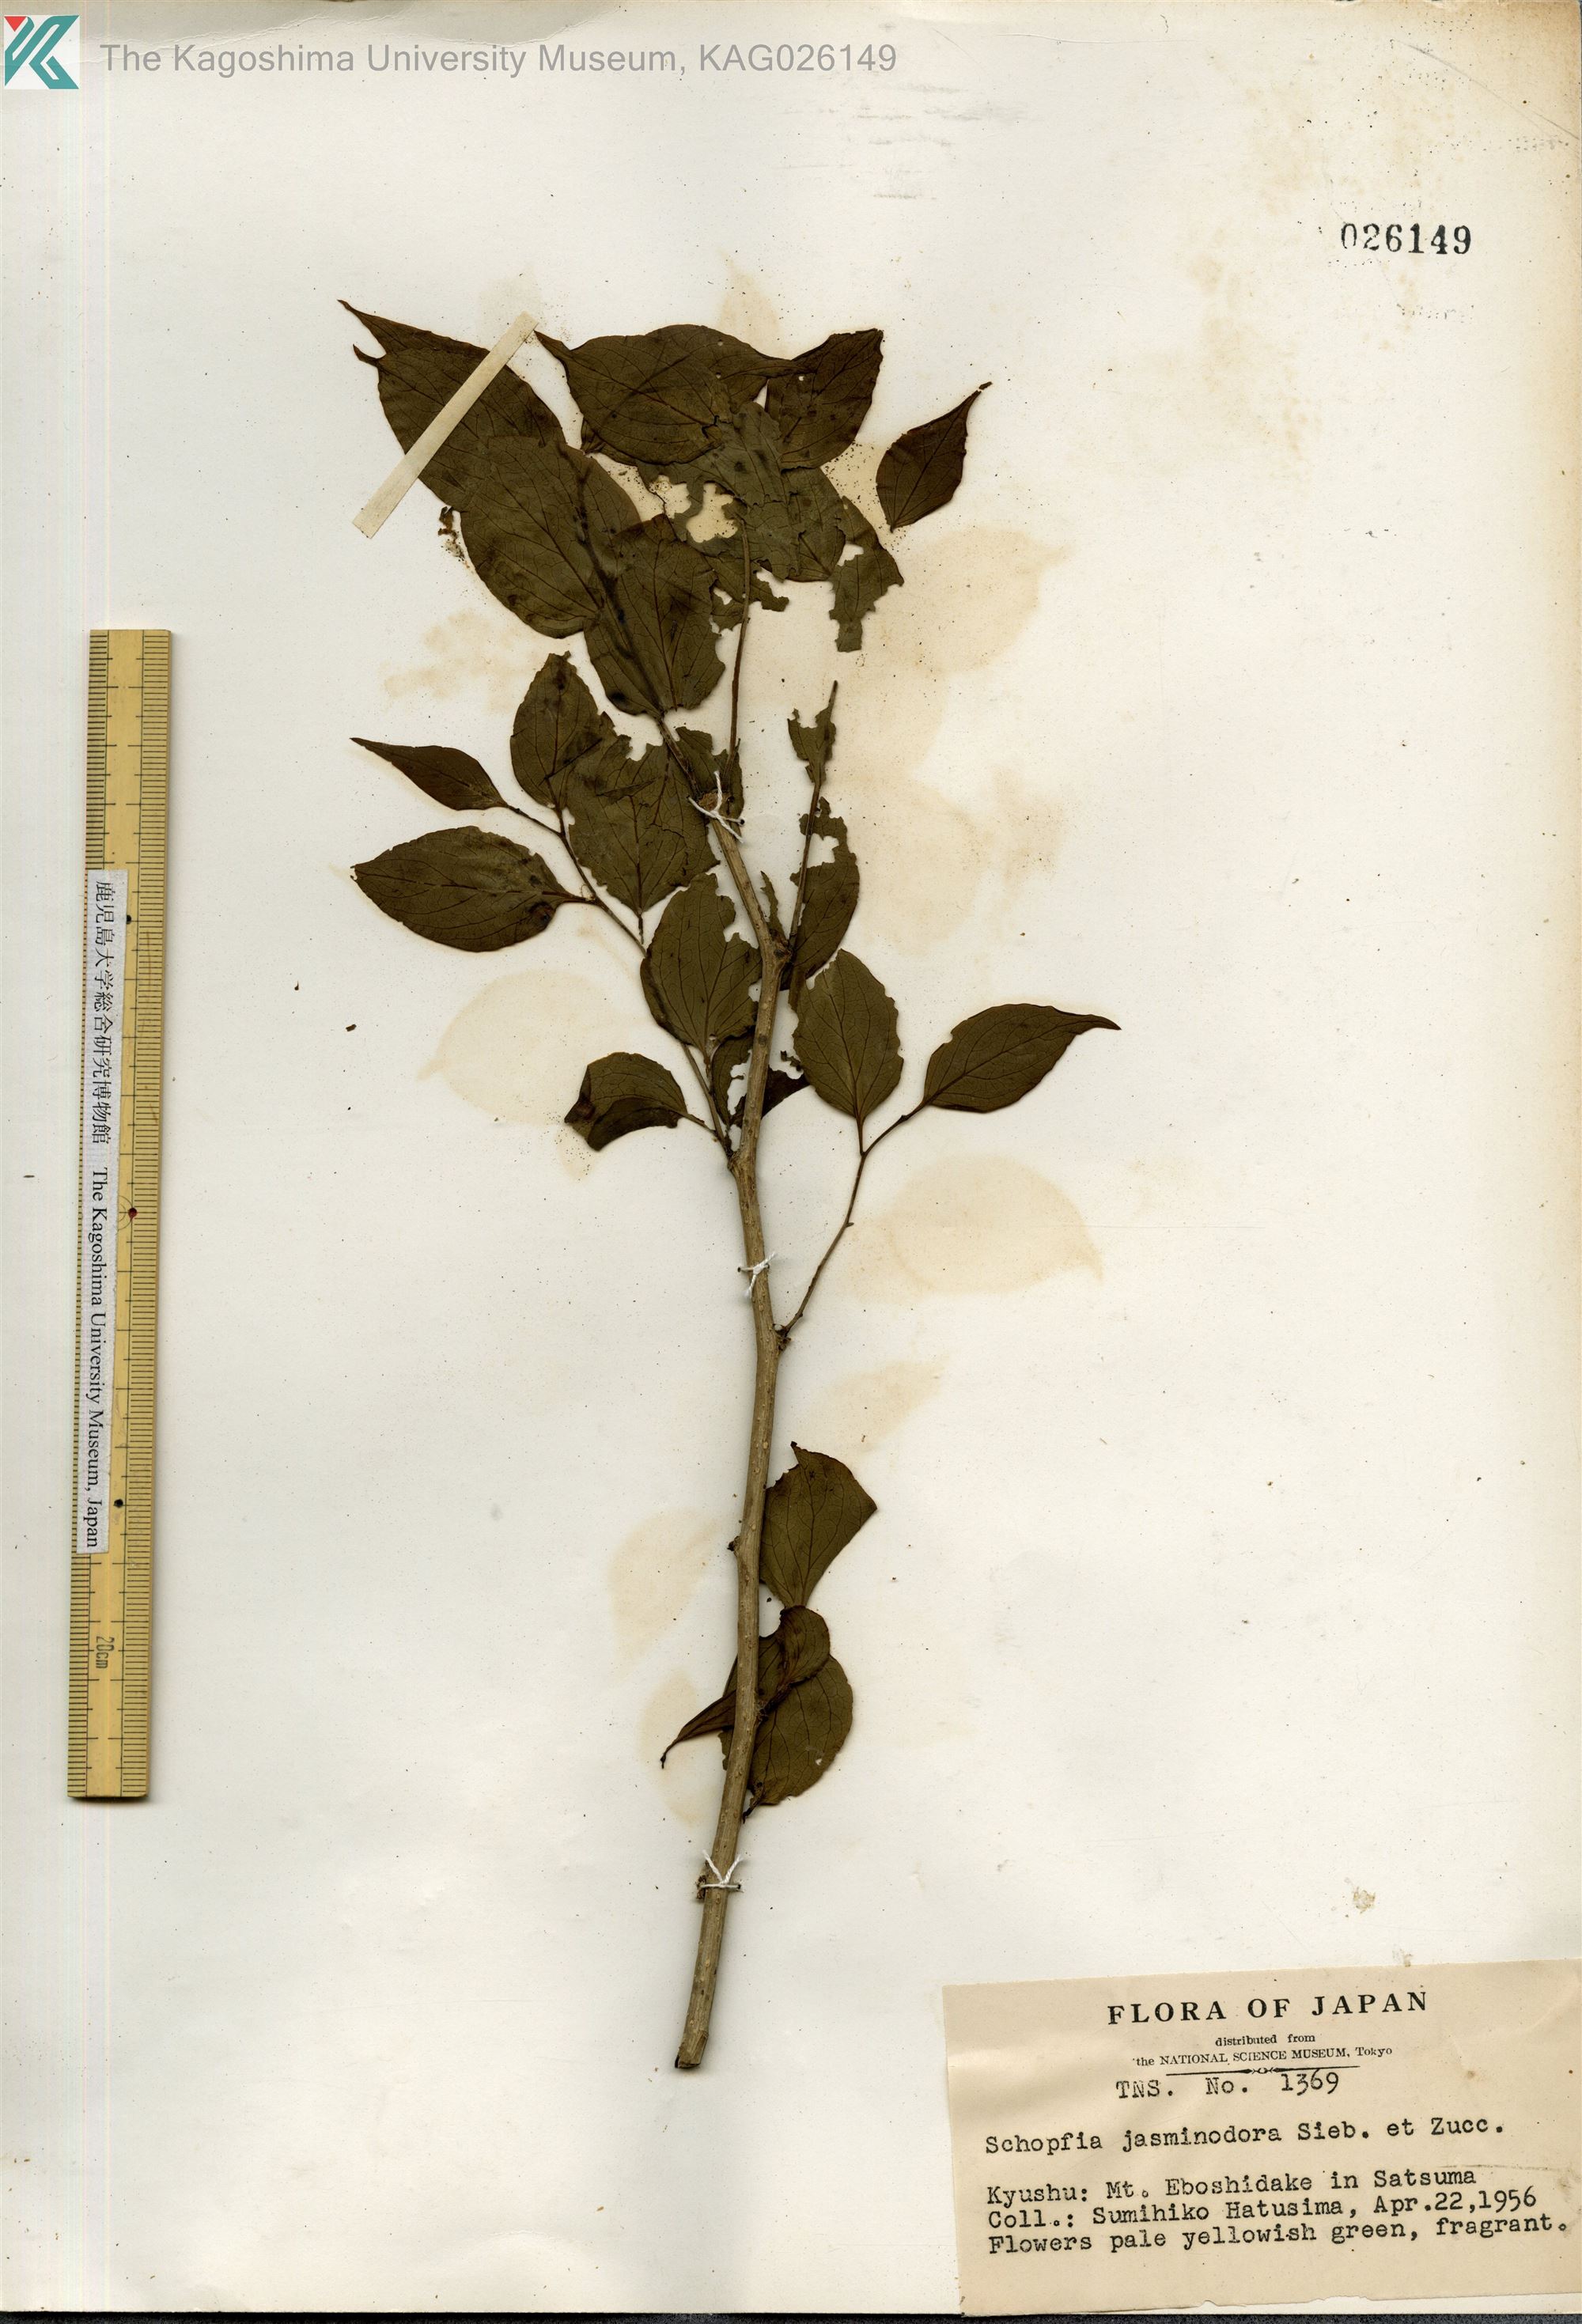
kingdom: Plantae
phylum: Tracheophyta
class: Magnoliopsida
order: Santalales
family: Schoepfiaceae
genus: Schoepfia
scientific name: Schoepfia jasminodora
